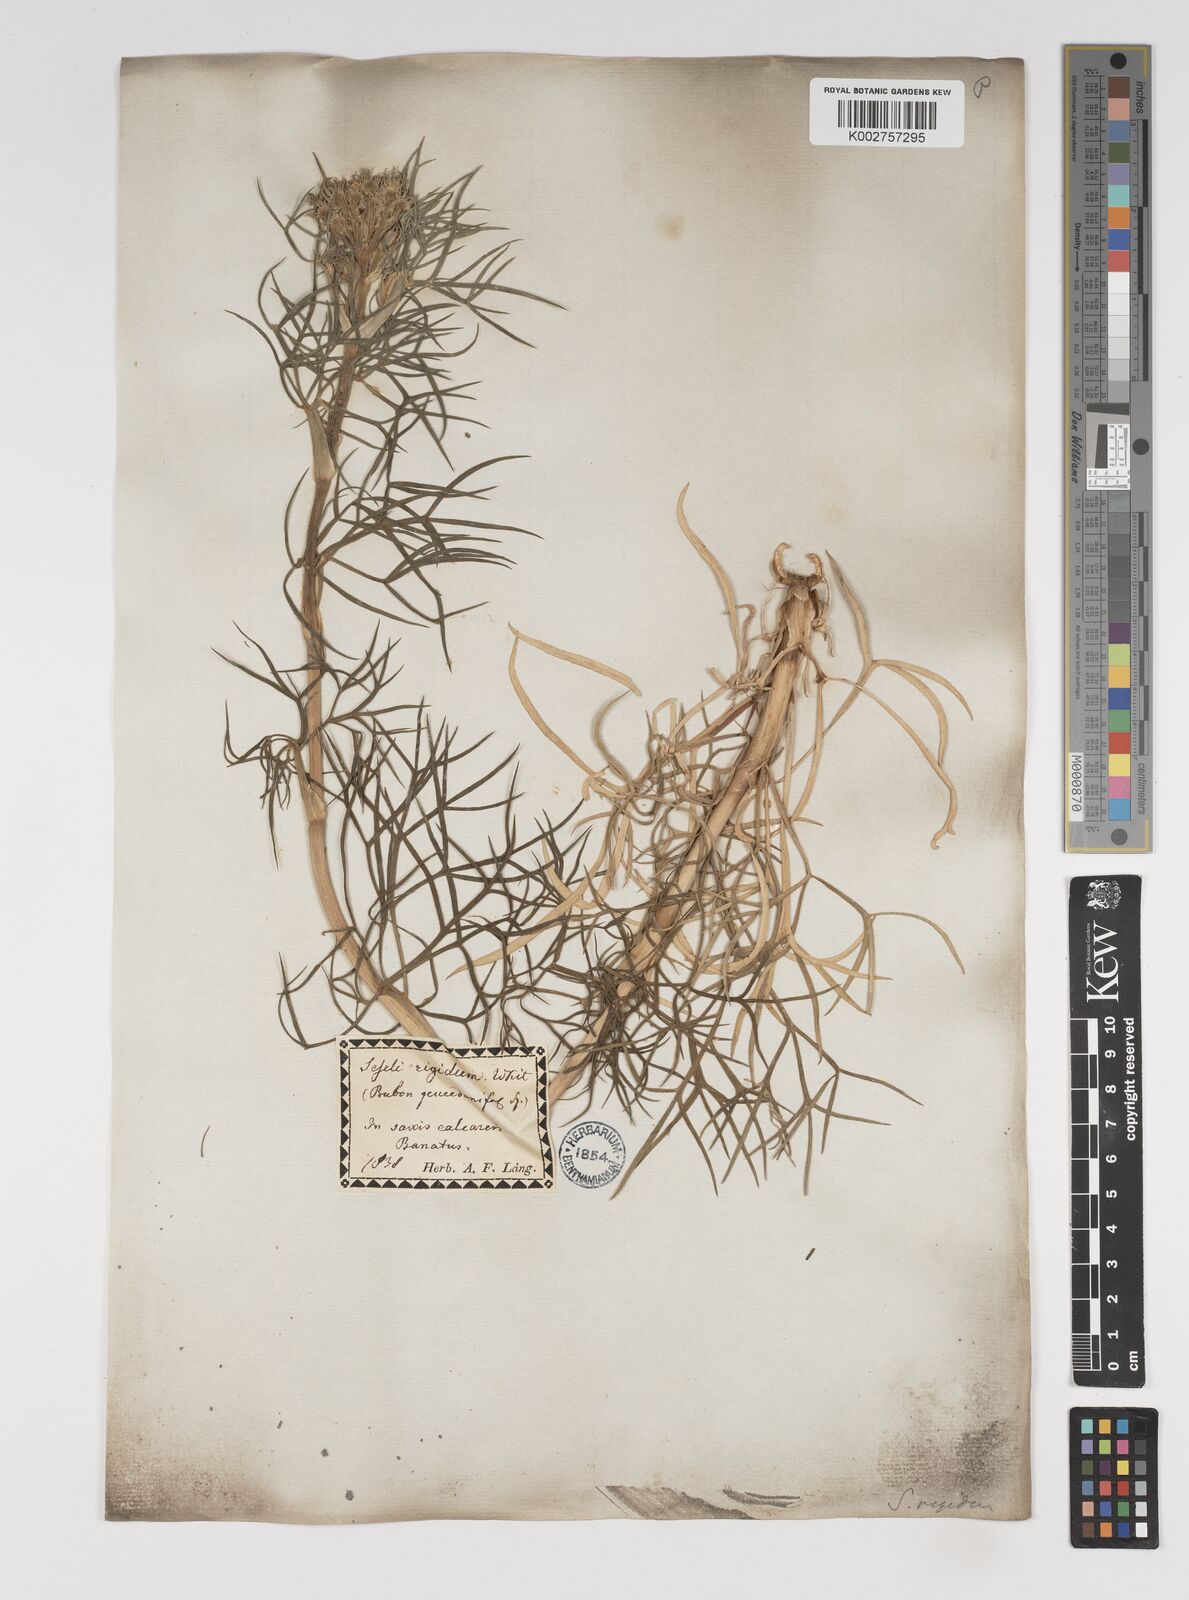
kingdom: Plantae
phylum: Tracheophyta
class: Magnoliopsida
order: Apiales
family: Apiaceae
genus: Seseli
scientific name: Seseli rigidum
